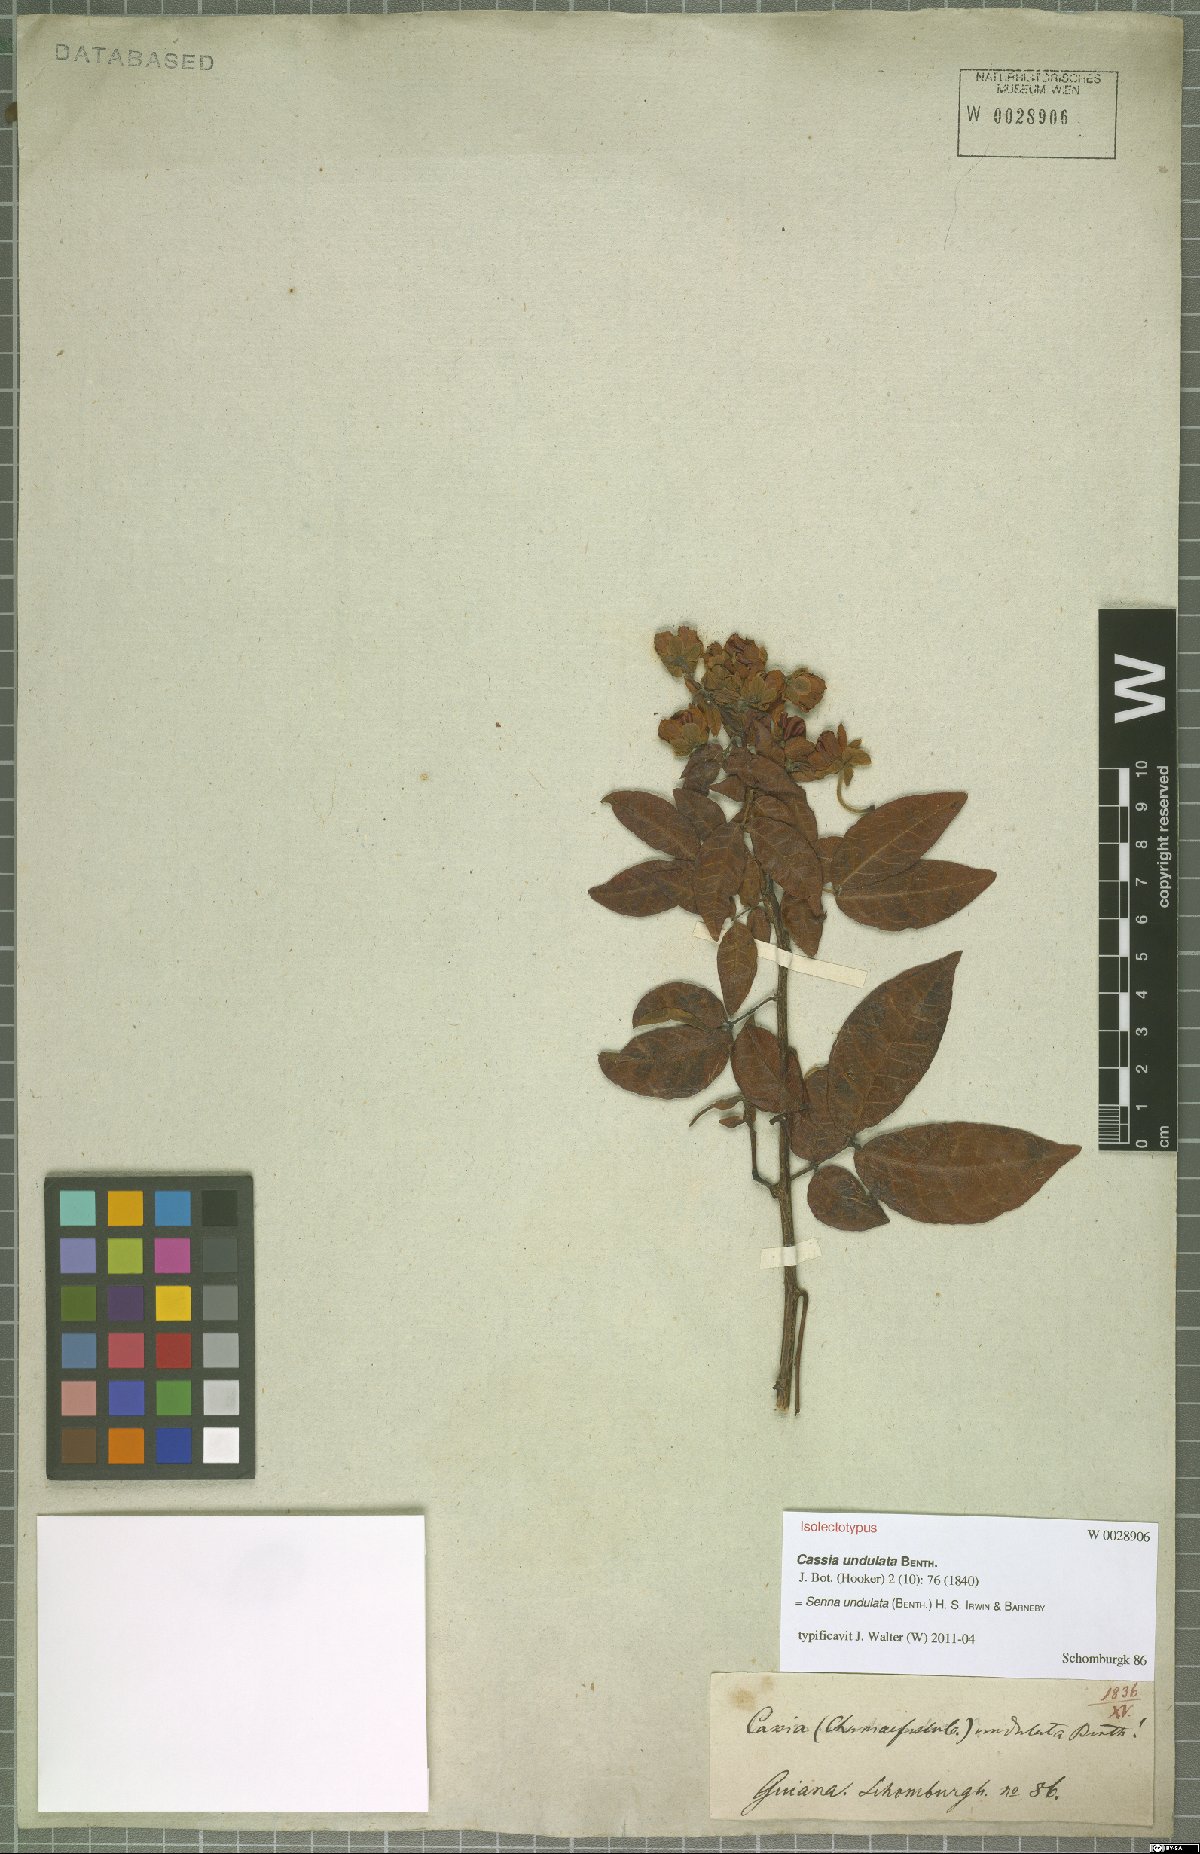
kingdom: Plantae
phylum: Tracheophyta
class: Magnoliopsida
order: Fabales
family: Fabaceae
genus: Senna
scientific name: Senna undulata
